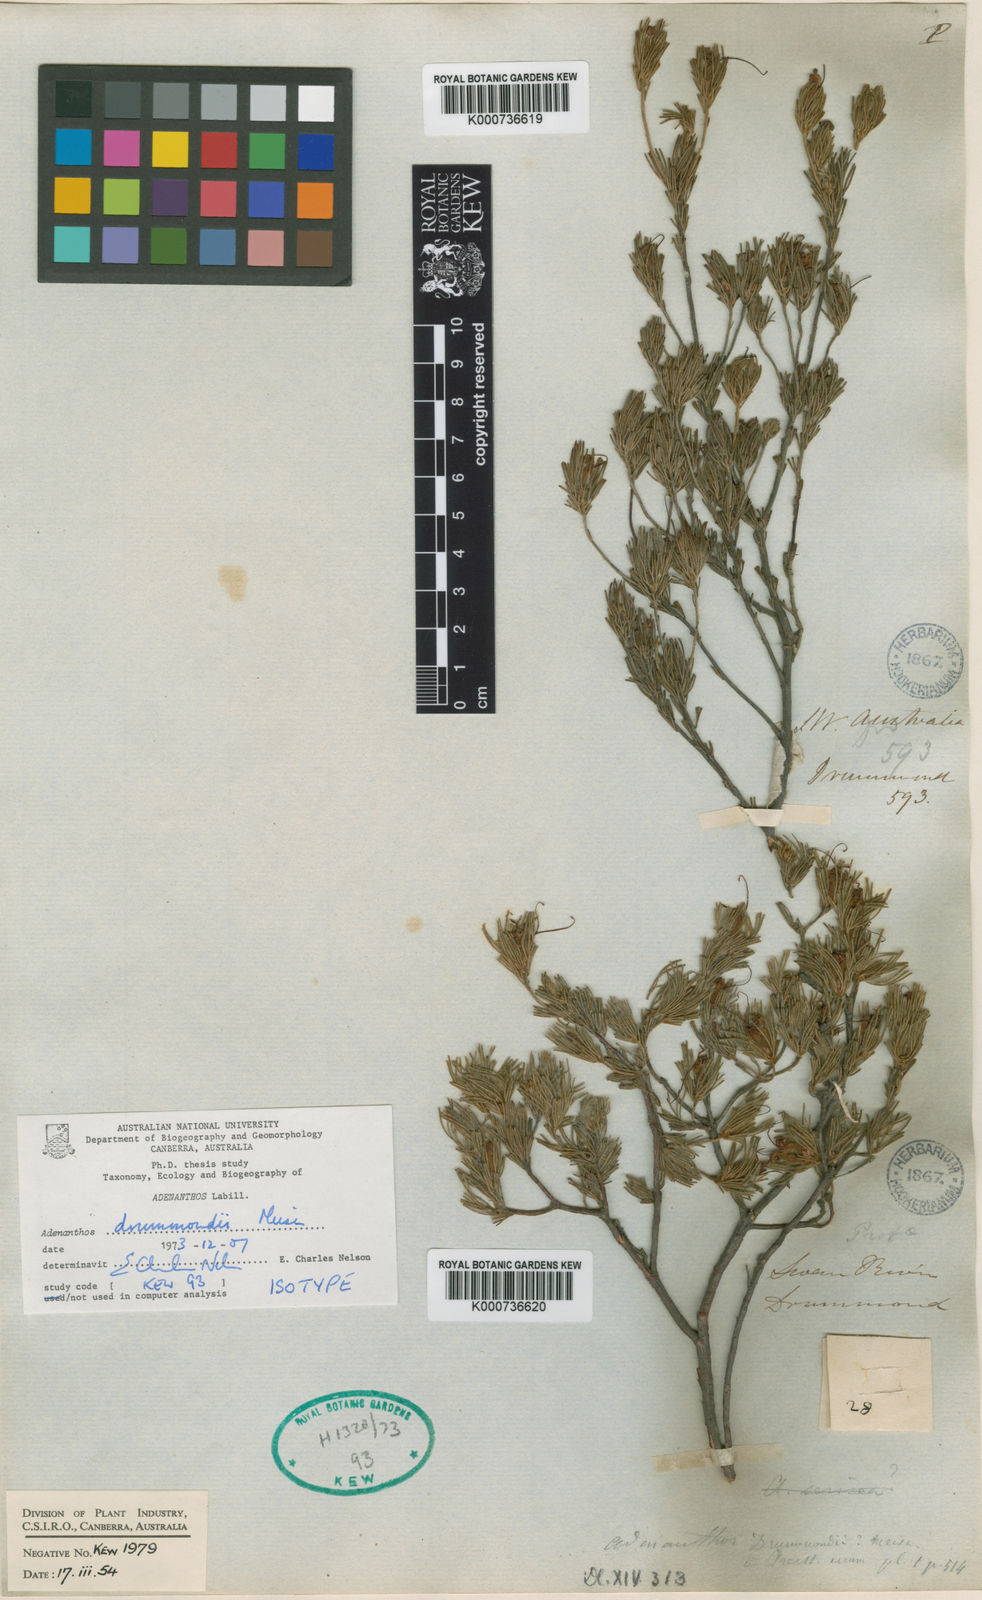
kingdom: Plantae
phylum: Tracheophyta
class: Magnoliopsida
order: Proteales
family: Proteaceae
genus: Adenanthos
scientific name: Adenanthos drummondii
